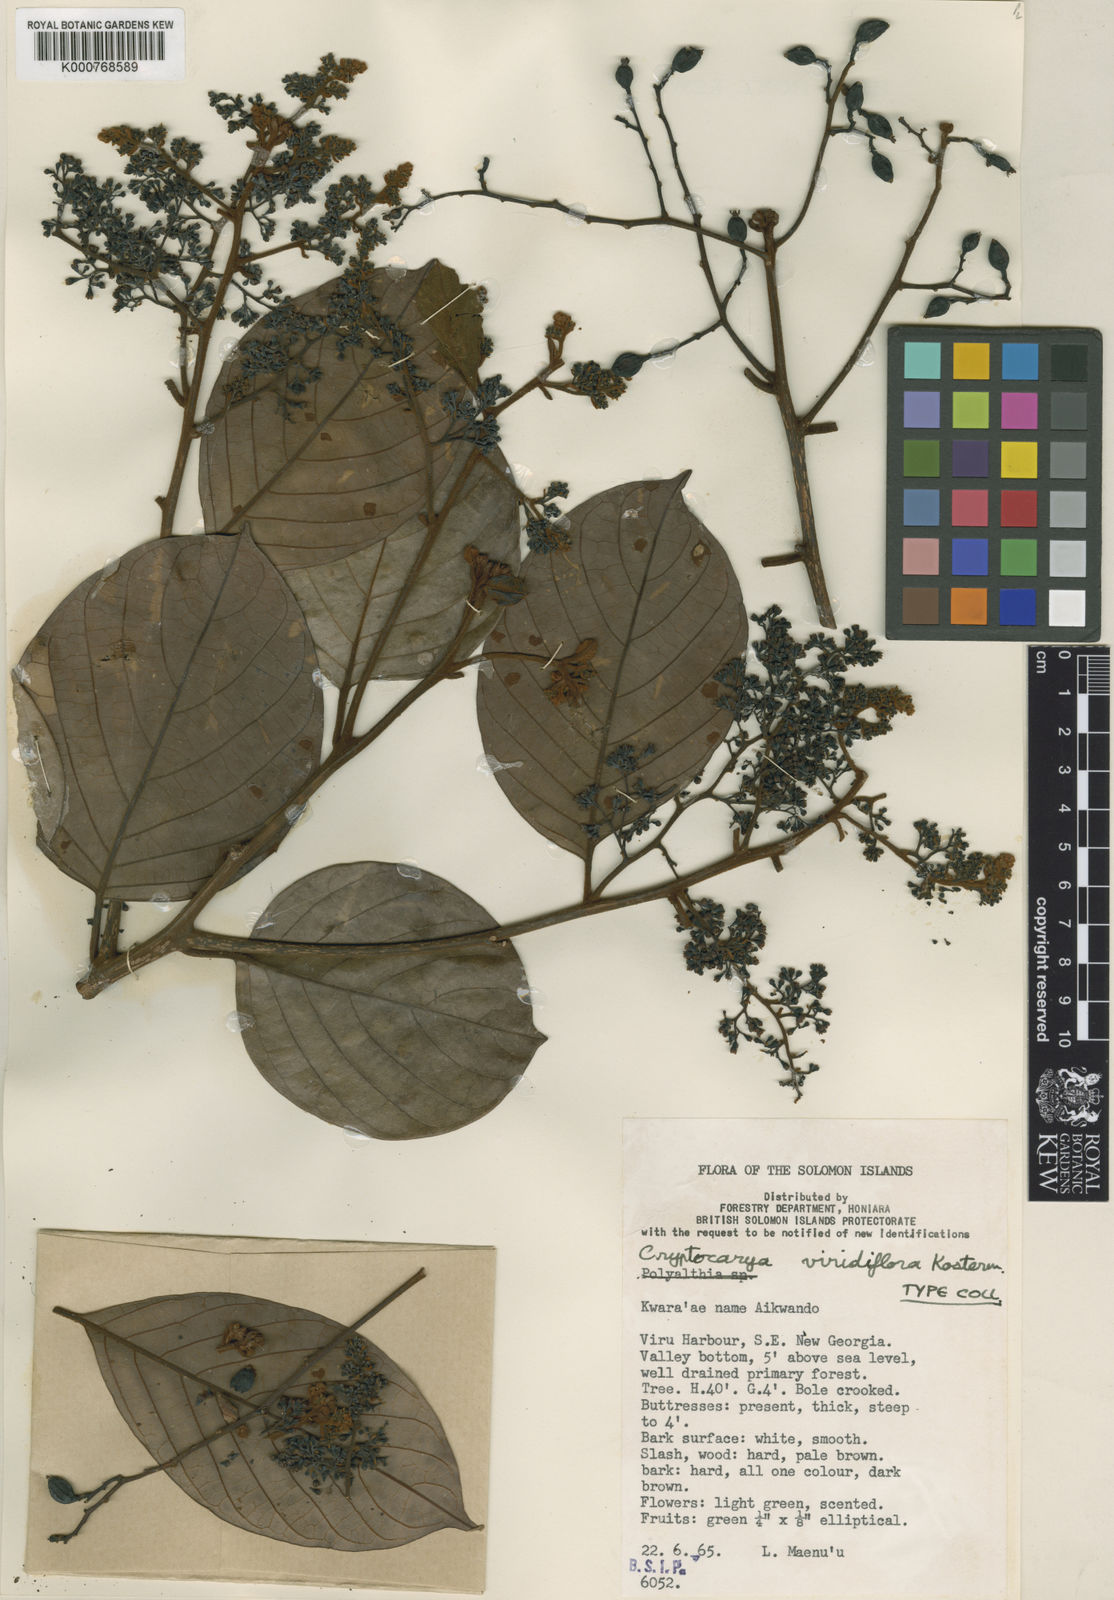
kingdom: Plantae
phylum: Tracheophyta
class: Magnoliopsida
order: Laurales
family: Lauraceae
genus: Cryptocarya
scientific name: Cryptocarya viridiflora
